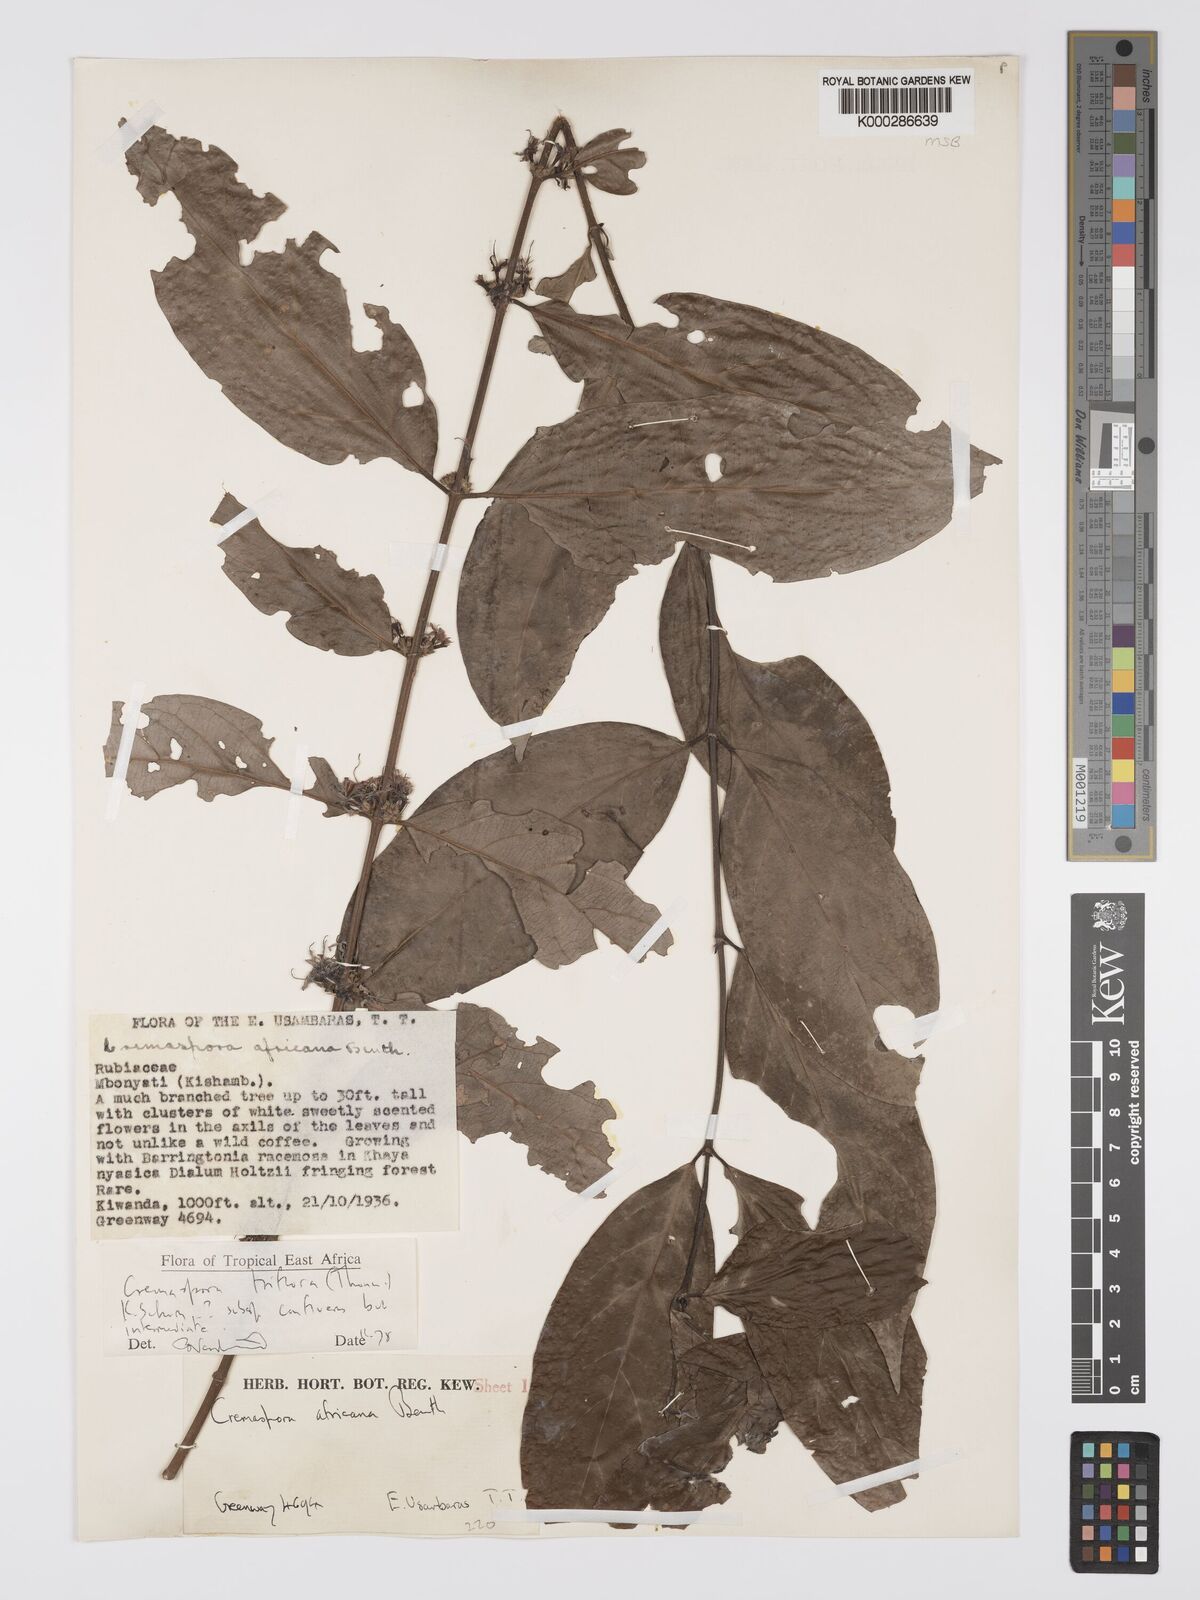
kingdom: Plantae
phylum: Tracheophyta
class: Magnoliopsida
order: Gentianales
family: Rubiaceae
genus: Cremaspora
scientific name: Cremaspora triflora
